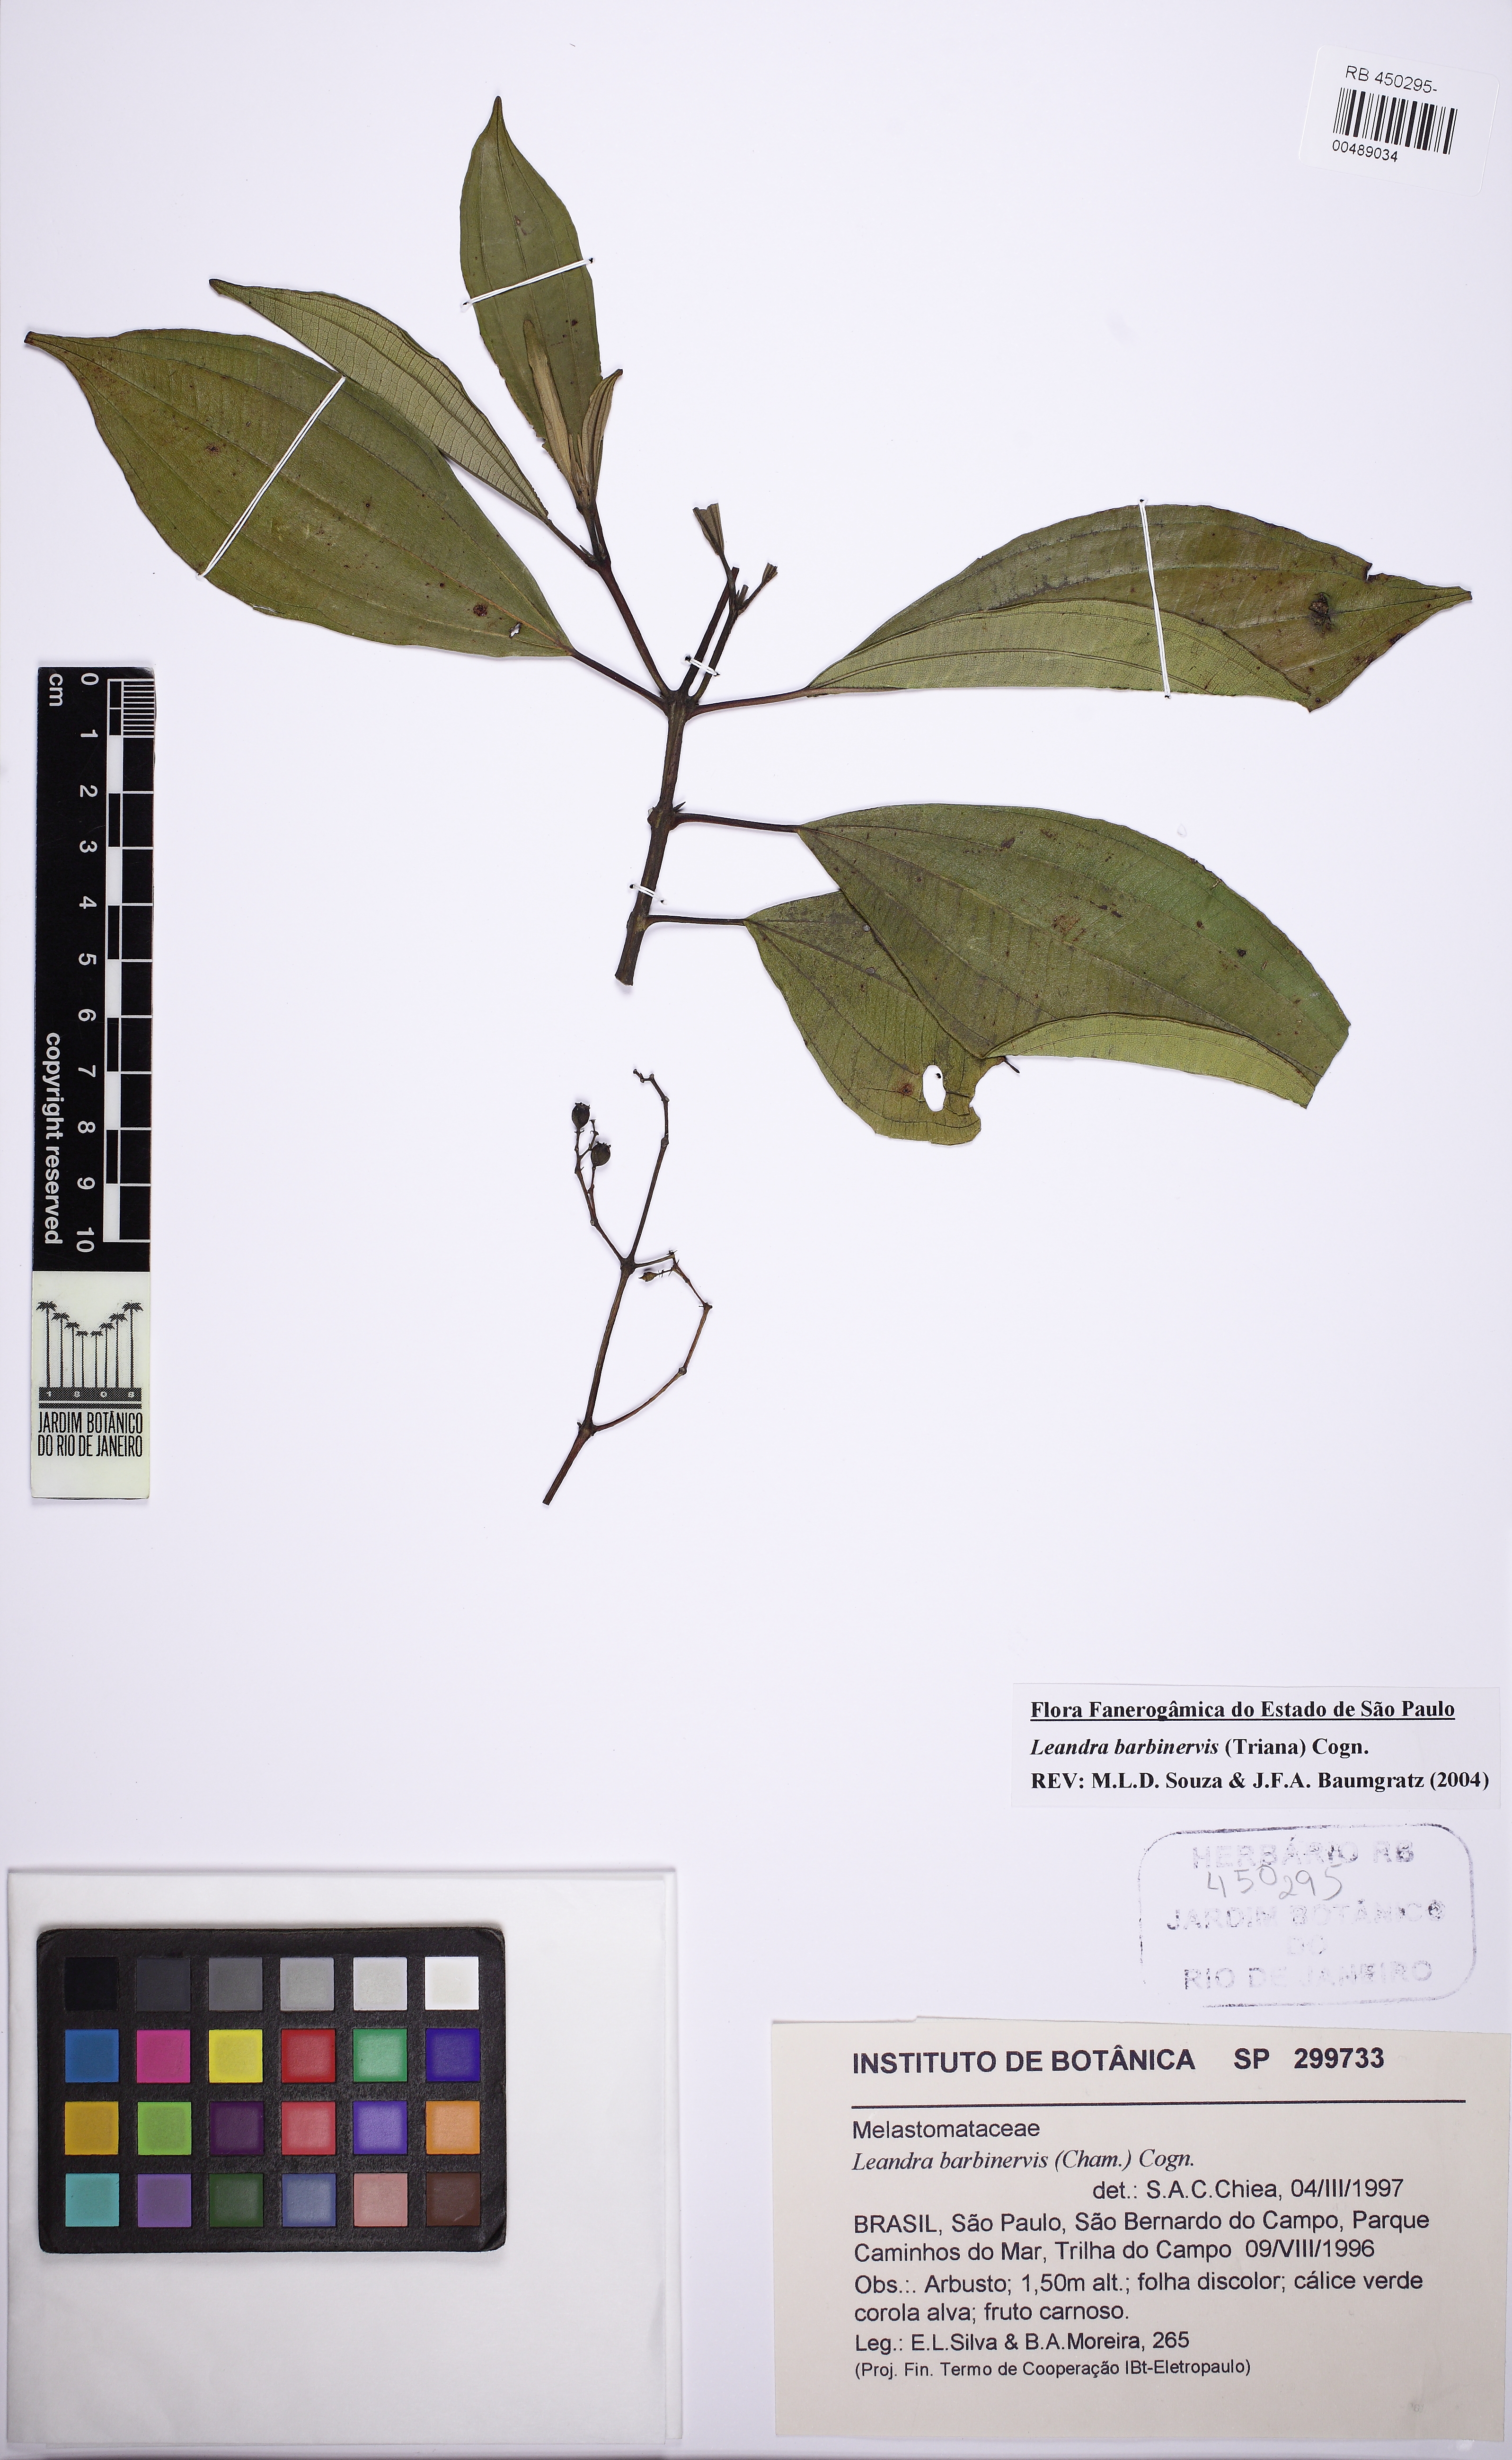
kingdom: Plantae
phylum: Tracheophyta
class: Magnoliopsida
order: Myrtales
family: Melastomataceae
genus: Miconia
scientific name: Miconia trauninensis
